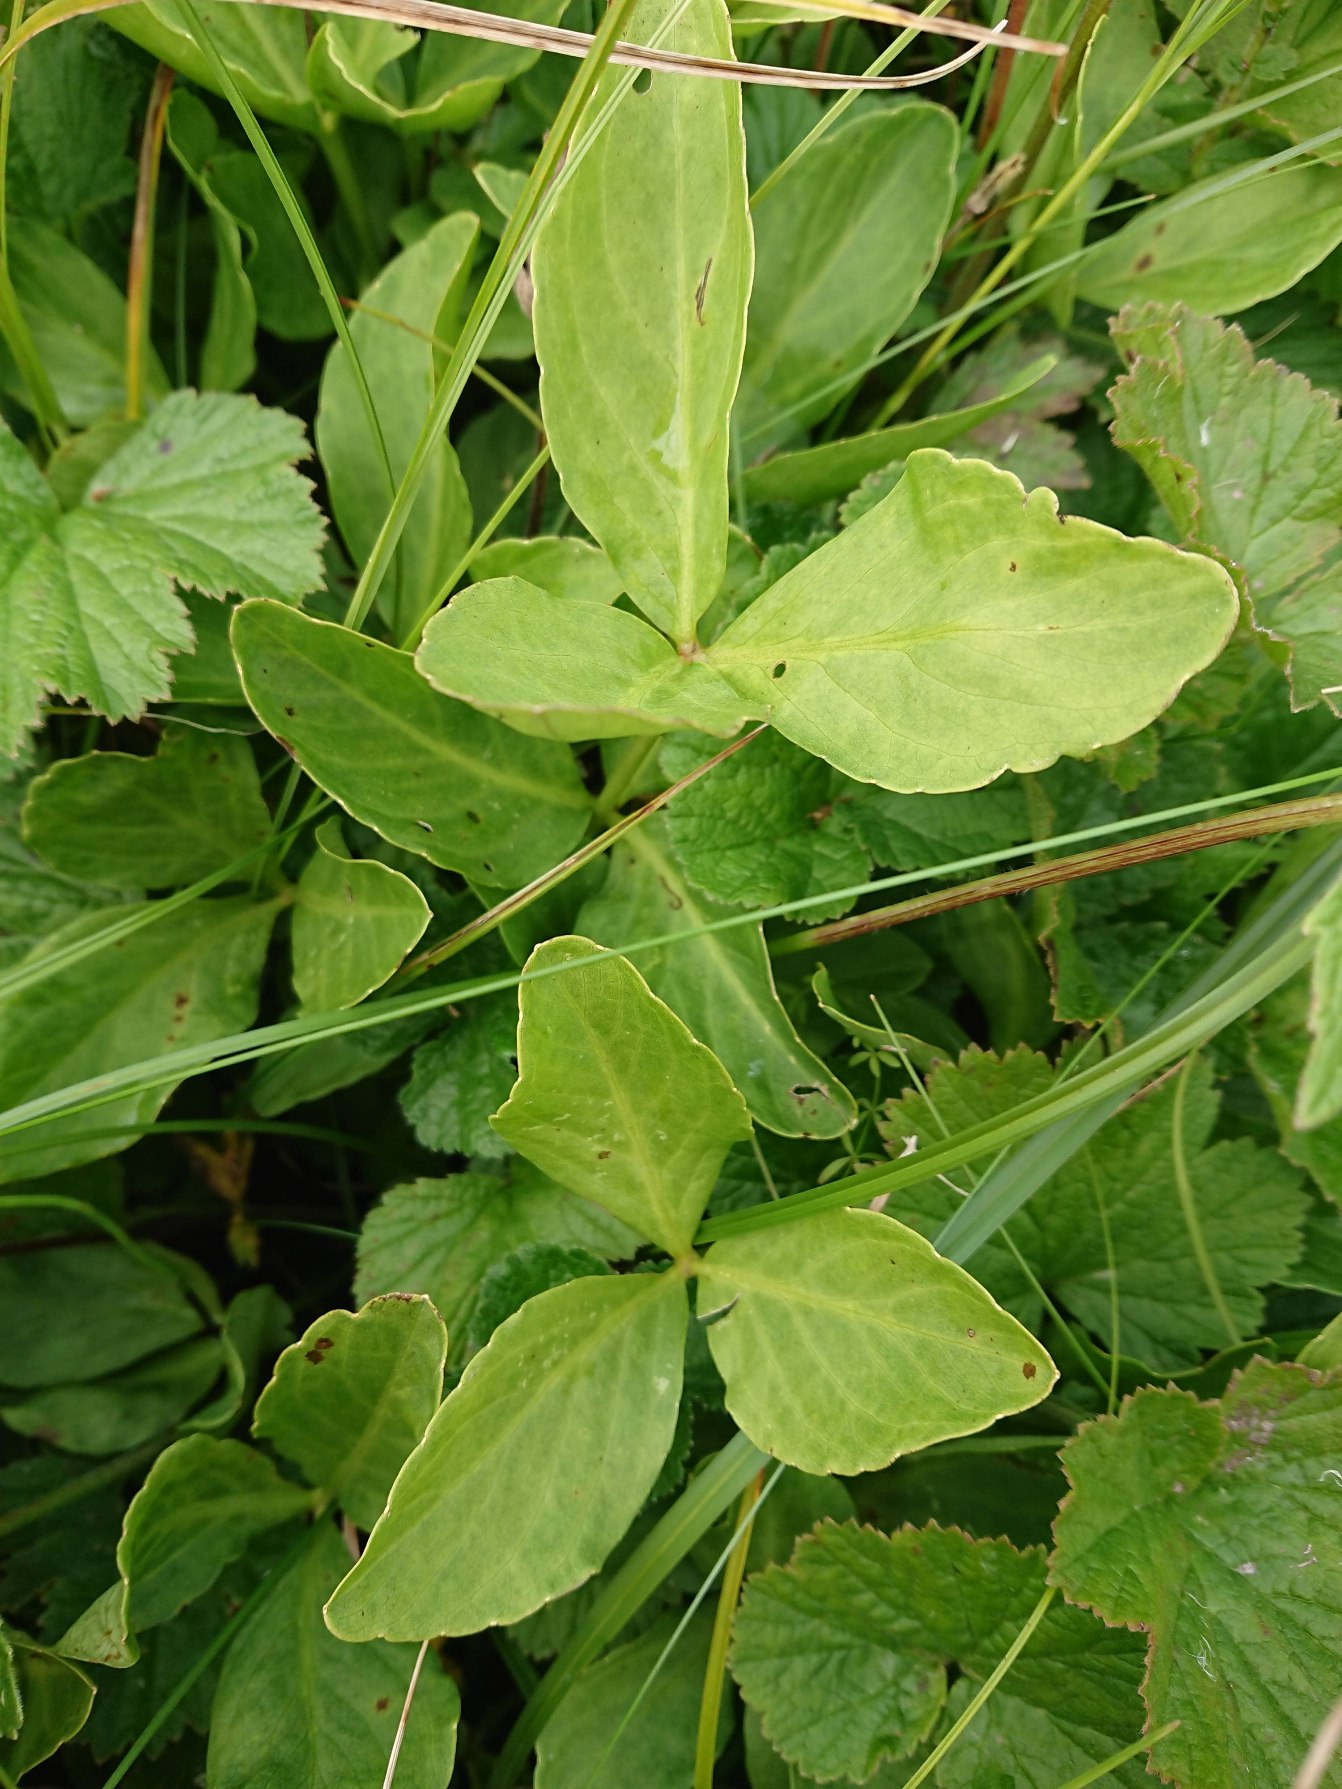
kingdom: Plantae
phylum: Tracheophyta
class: Magnoliopsida
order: Asterales
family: Menyanthaceae
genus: Menyanthes
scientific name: Menyanthes trifoliata
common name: Bukkeblad
